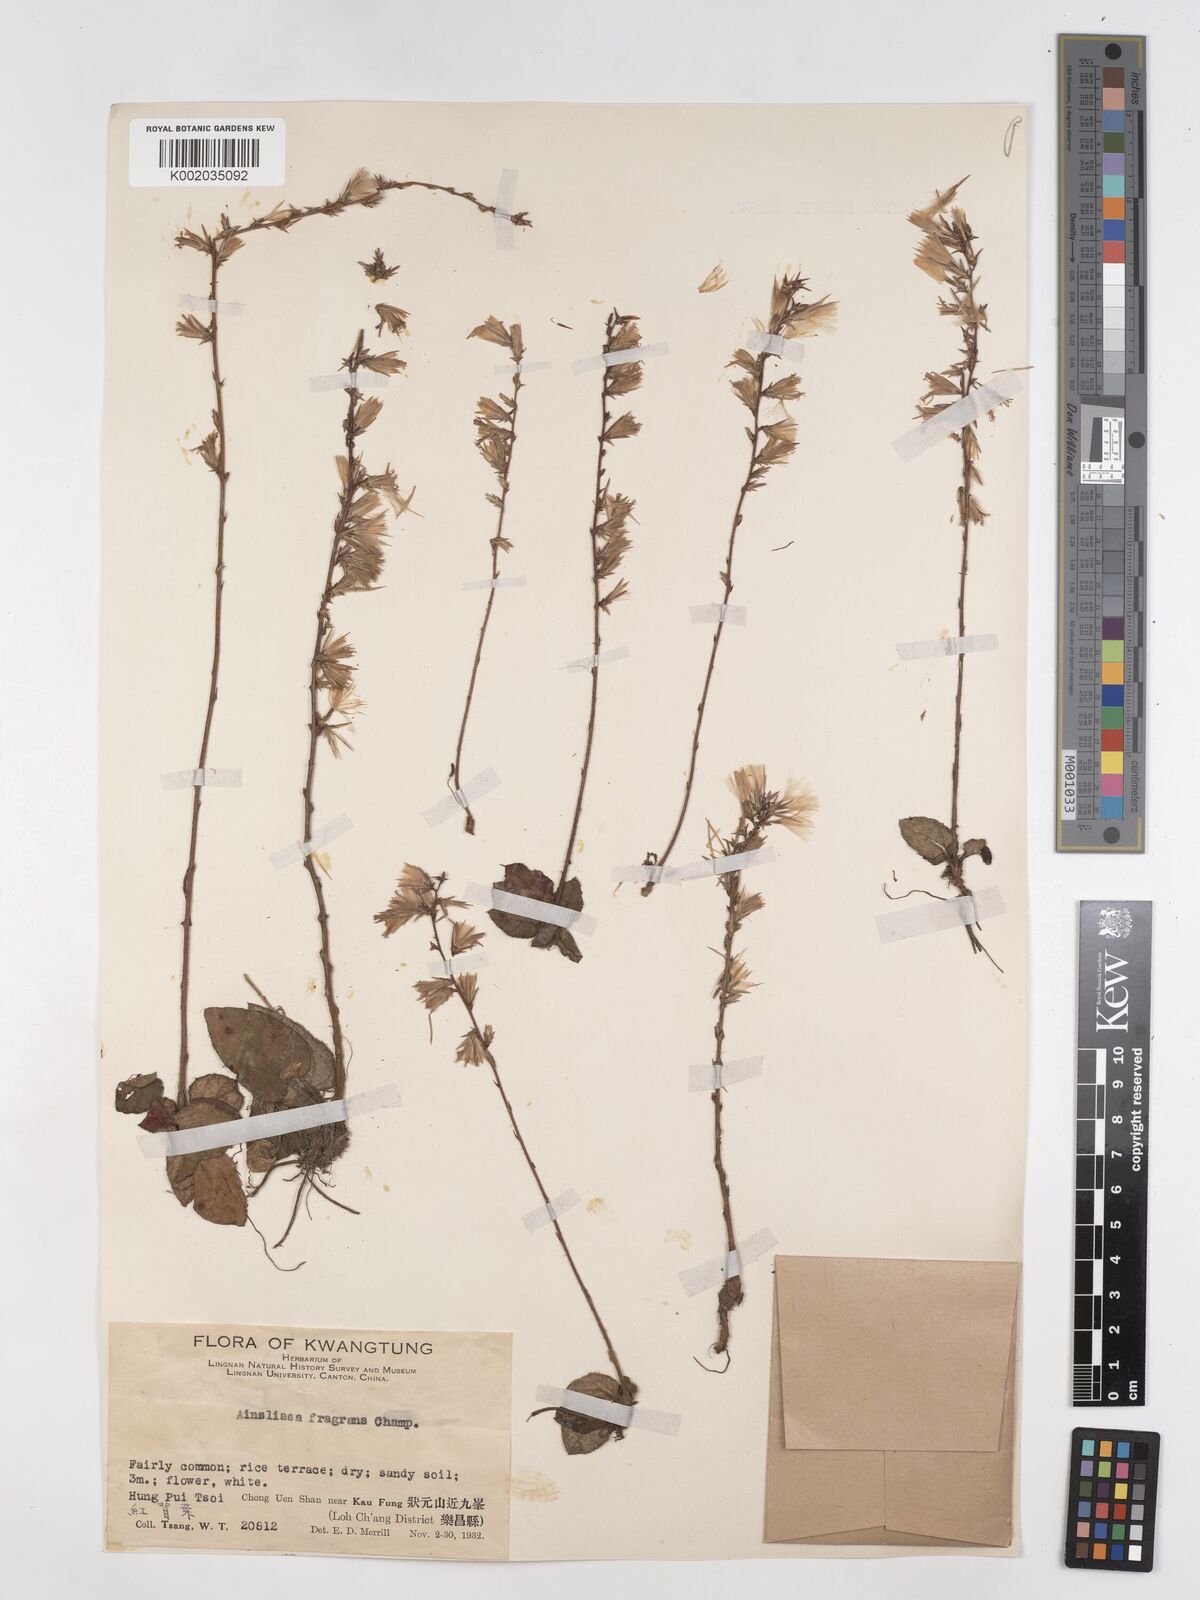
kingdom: Plantae
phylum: Tracheophyta
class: Magnoliopsida
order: Asterales
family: Asteraceae
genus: Ainsliaea
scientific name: Ainsliaea fragrans
